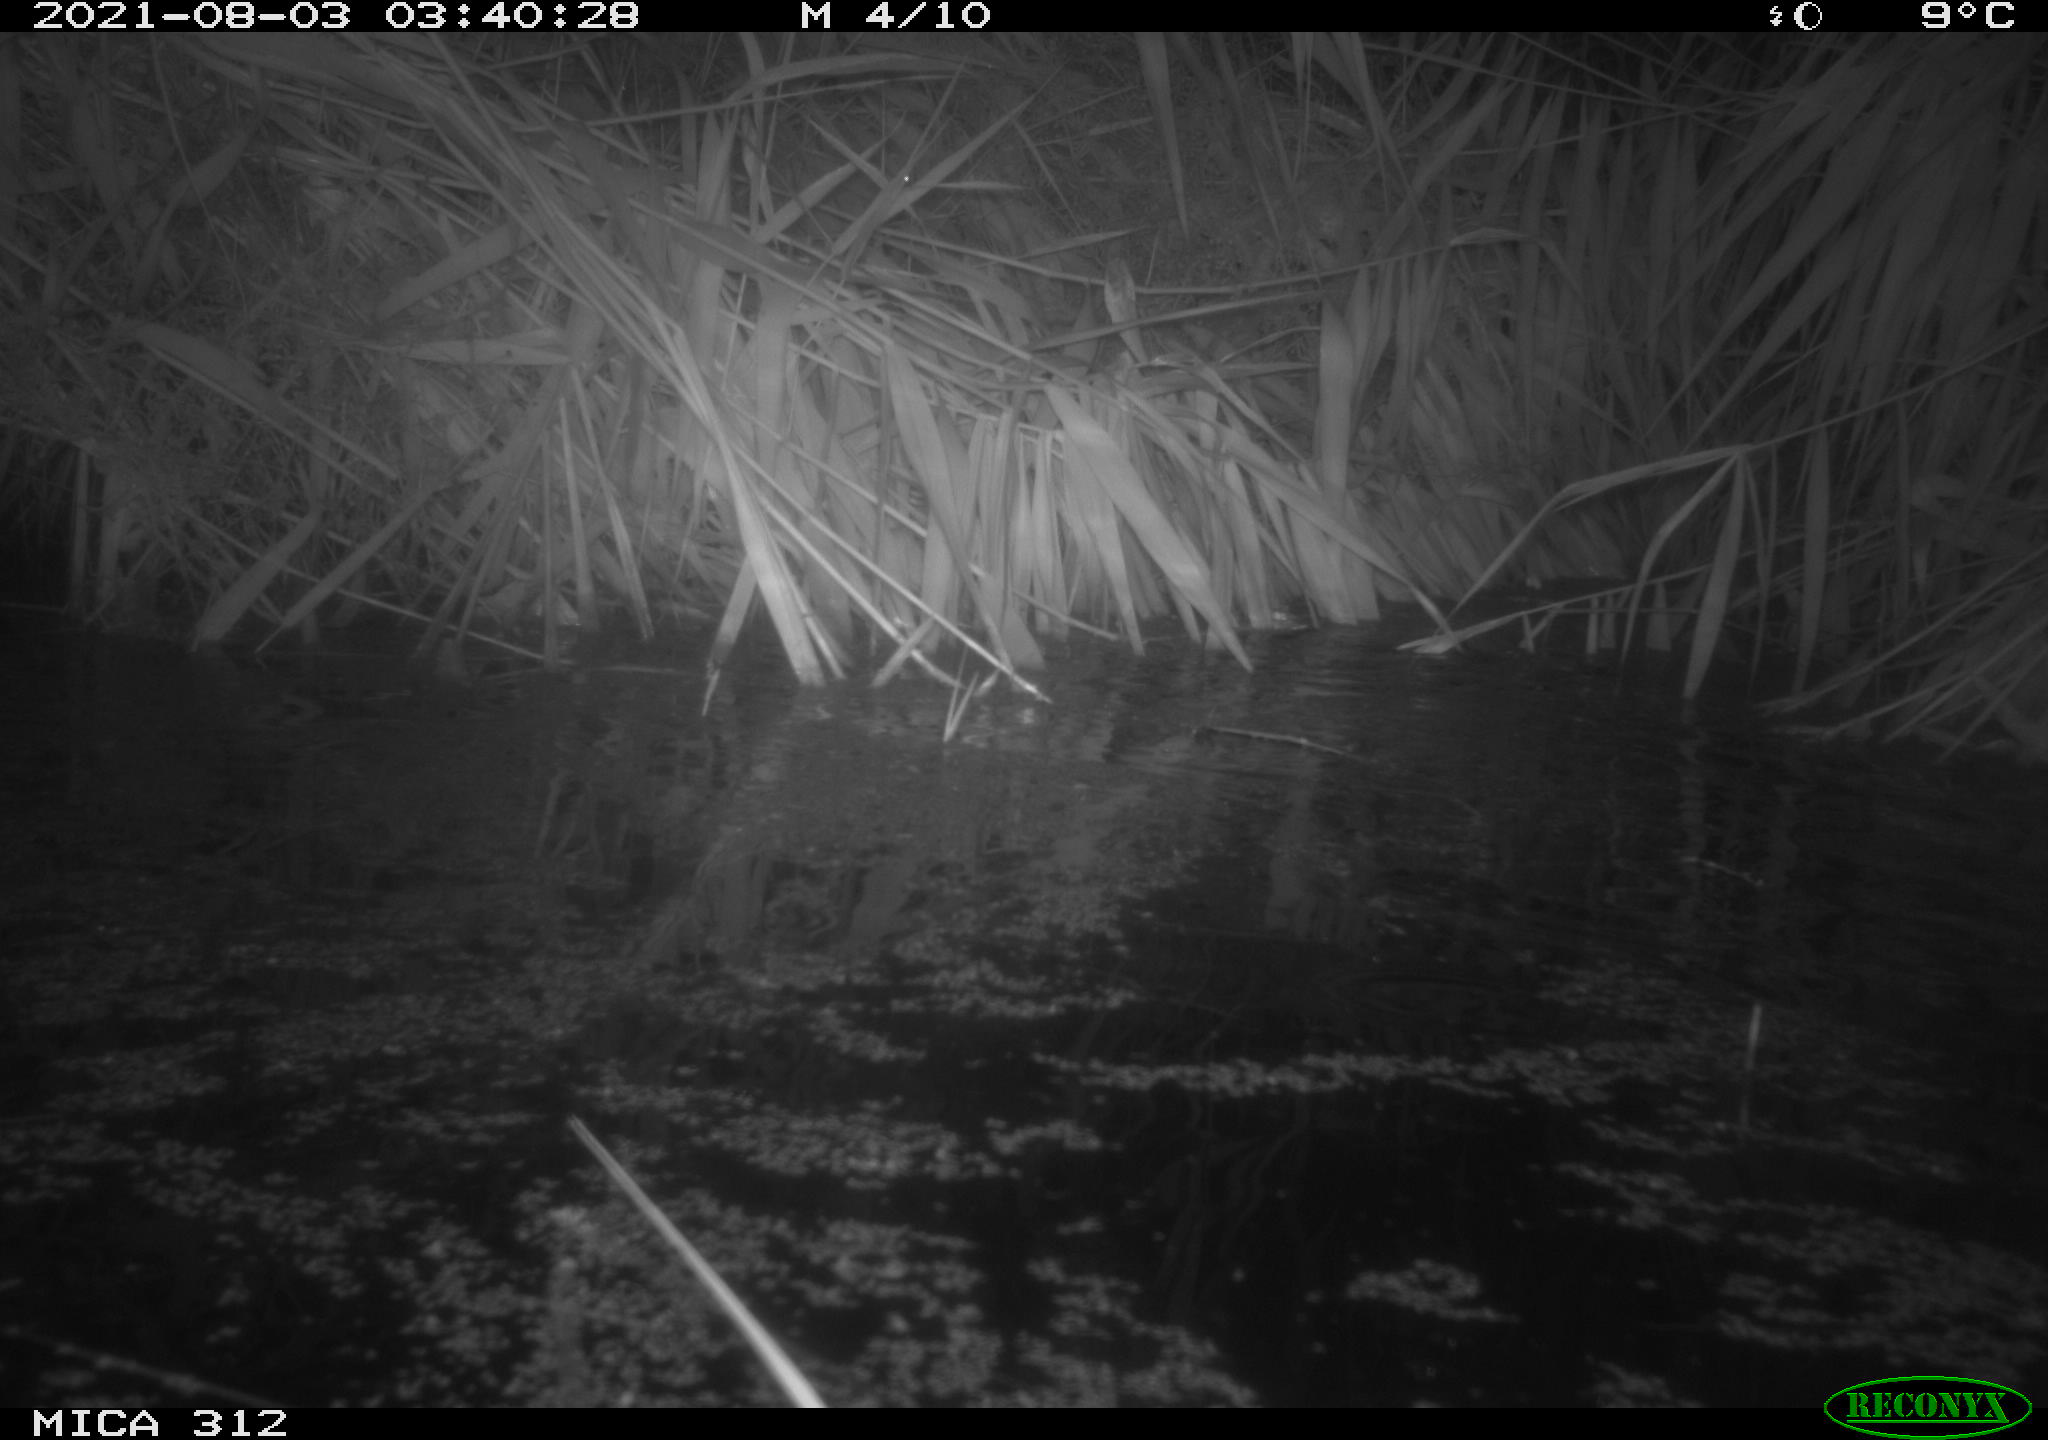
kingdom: Animalia
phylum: Chordata
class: Mammalia
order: Rodentia
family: Muridae
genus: Rattus
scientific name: Rattus norvegicus
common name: Brown rat
